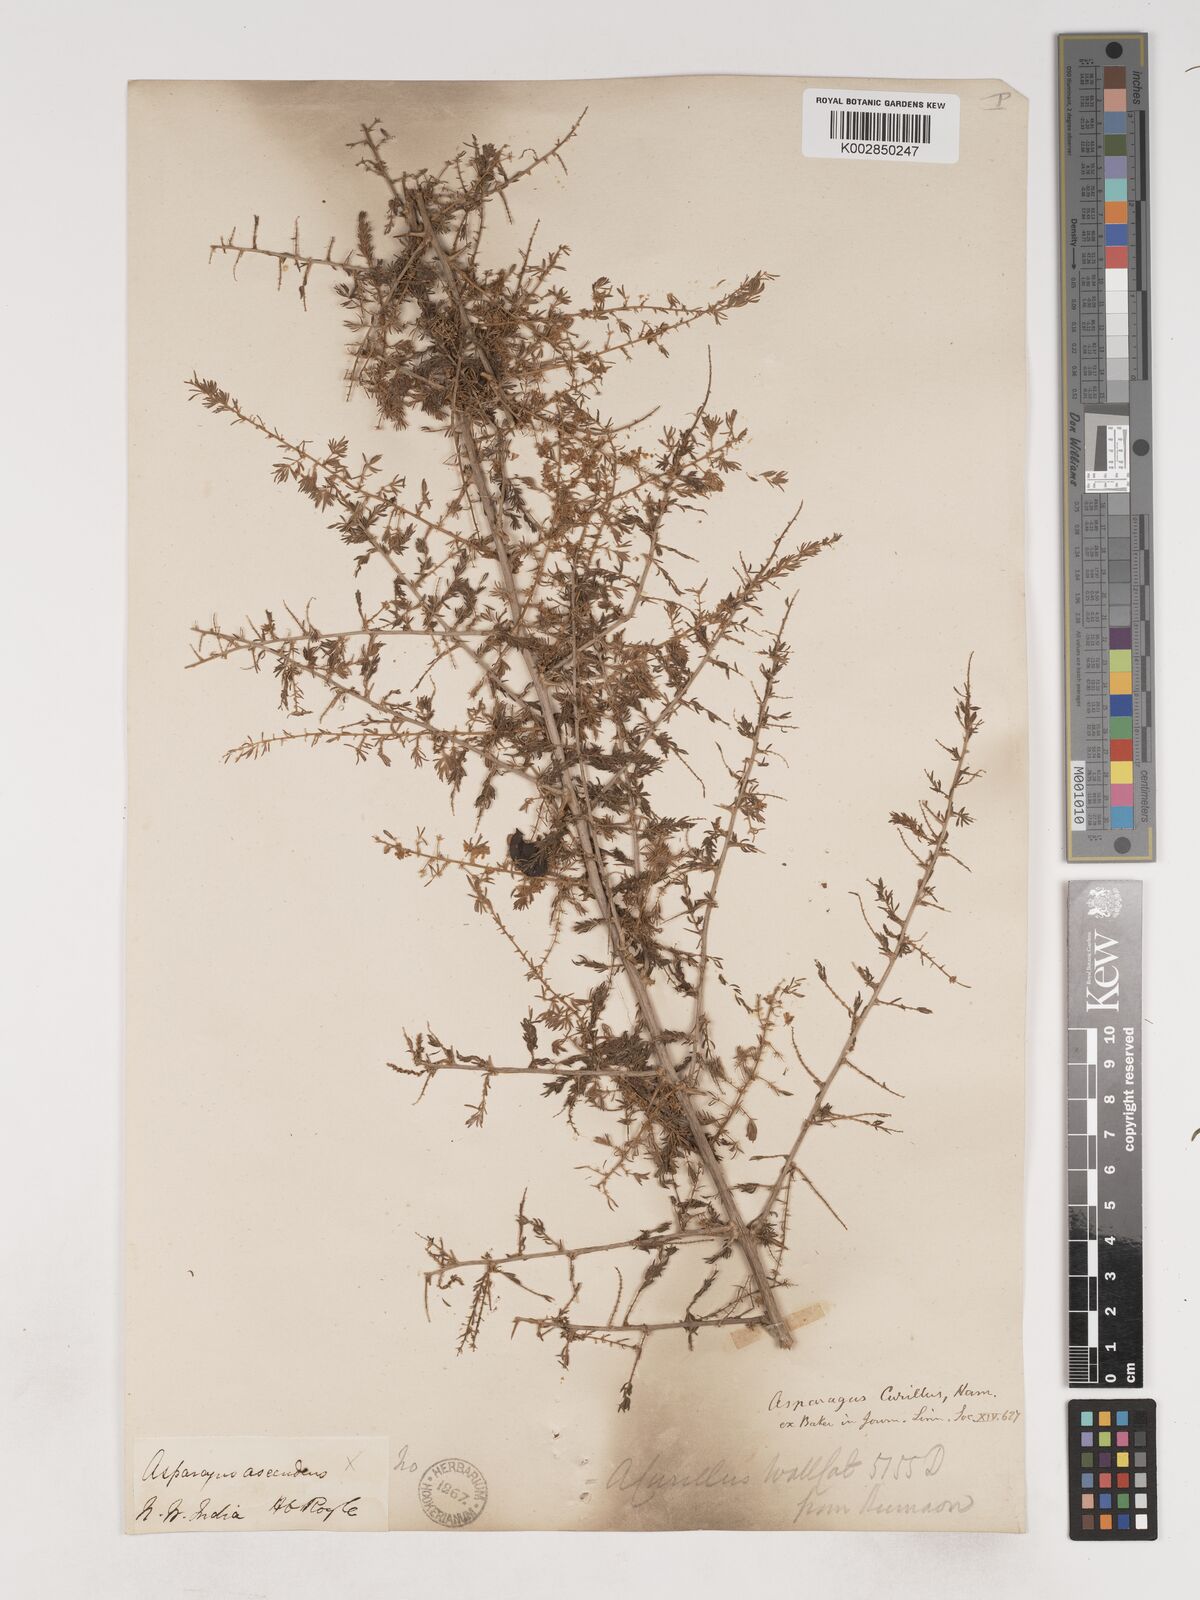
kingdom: Plantae
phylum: Tracheophyta
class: Liliopsida
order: Asparagales
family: Asparagaceae
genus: Asparagus
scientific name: Asparagus curillus
